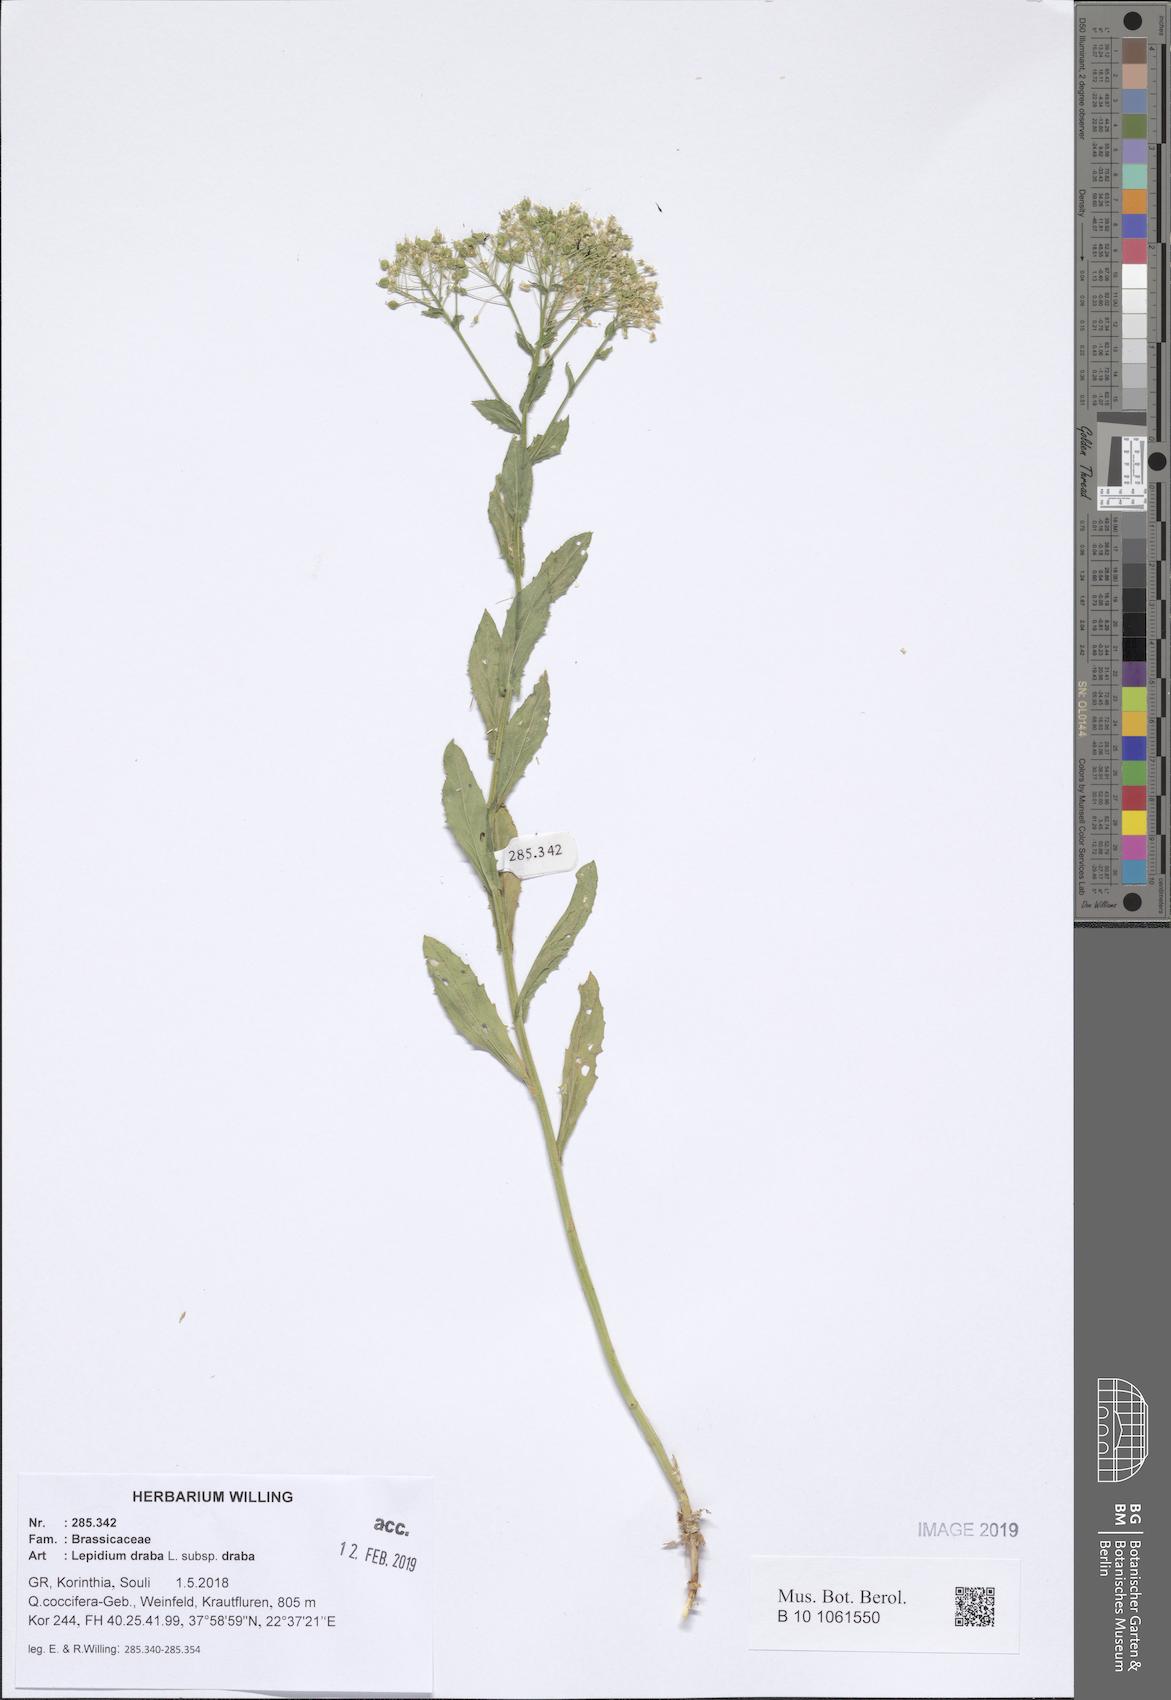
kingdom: Plantae
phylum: Tracheophyta
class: Magnoliopsida
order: Brassicales
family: Brassicaceae
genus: Lepidium
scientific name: Lepidium draba
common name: Hoary cress
